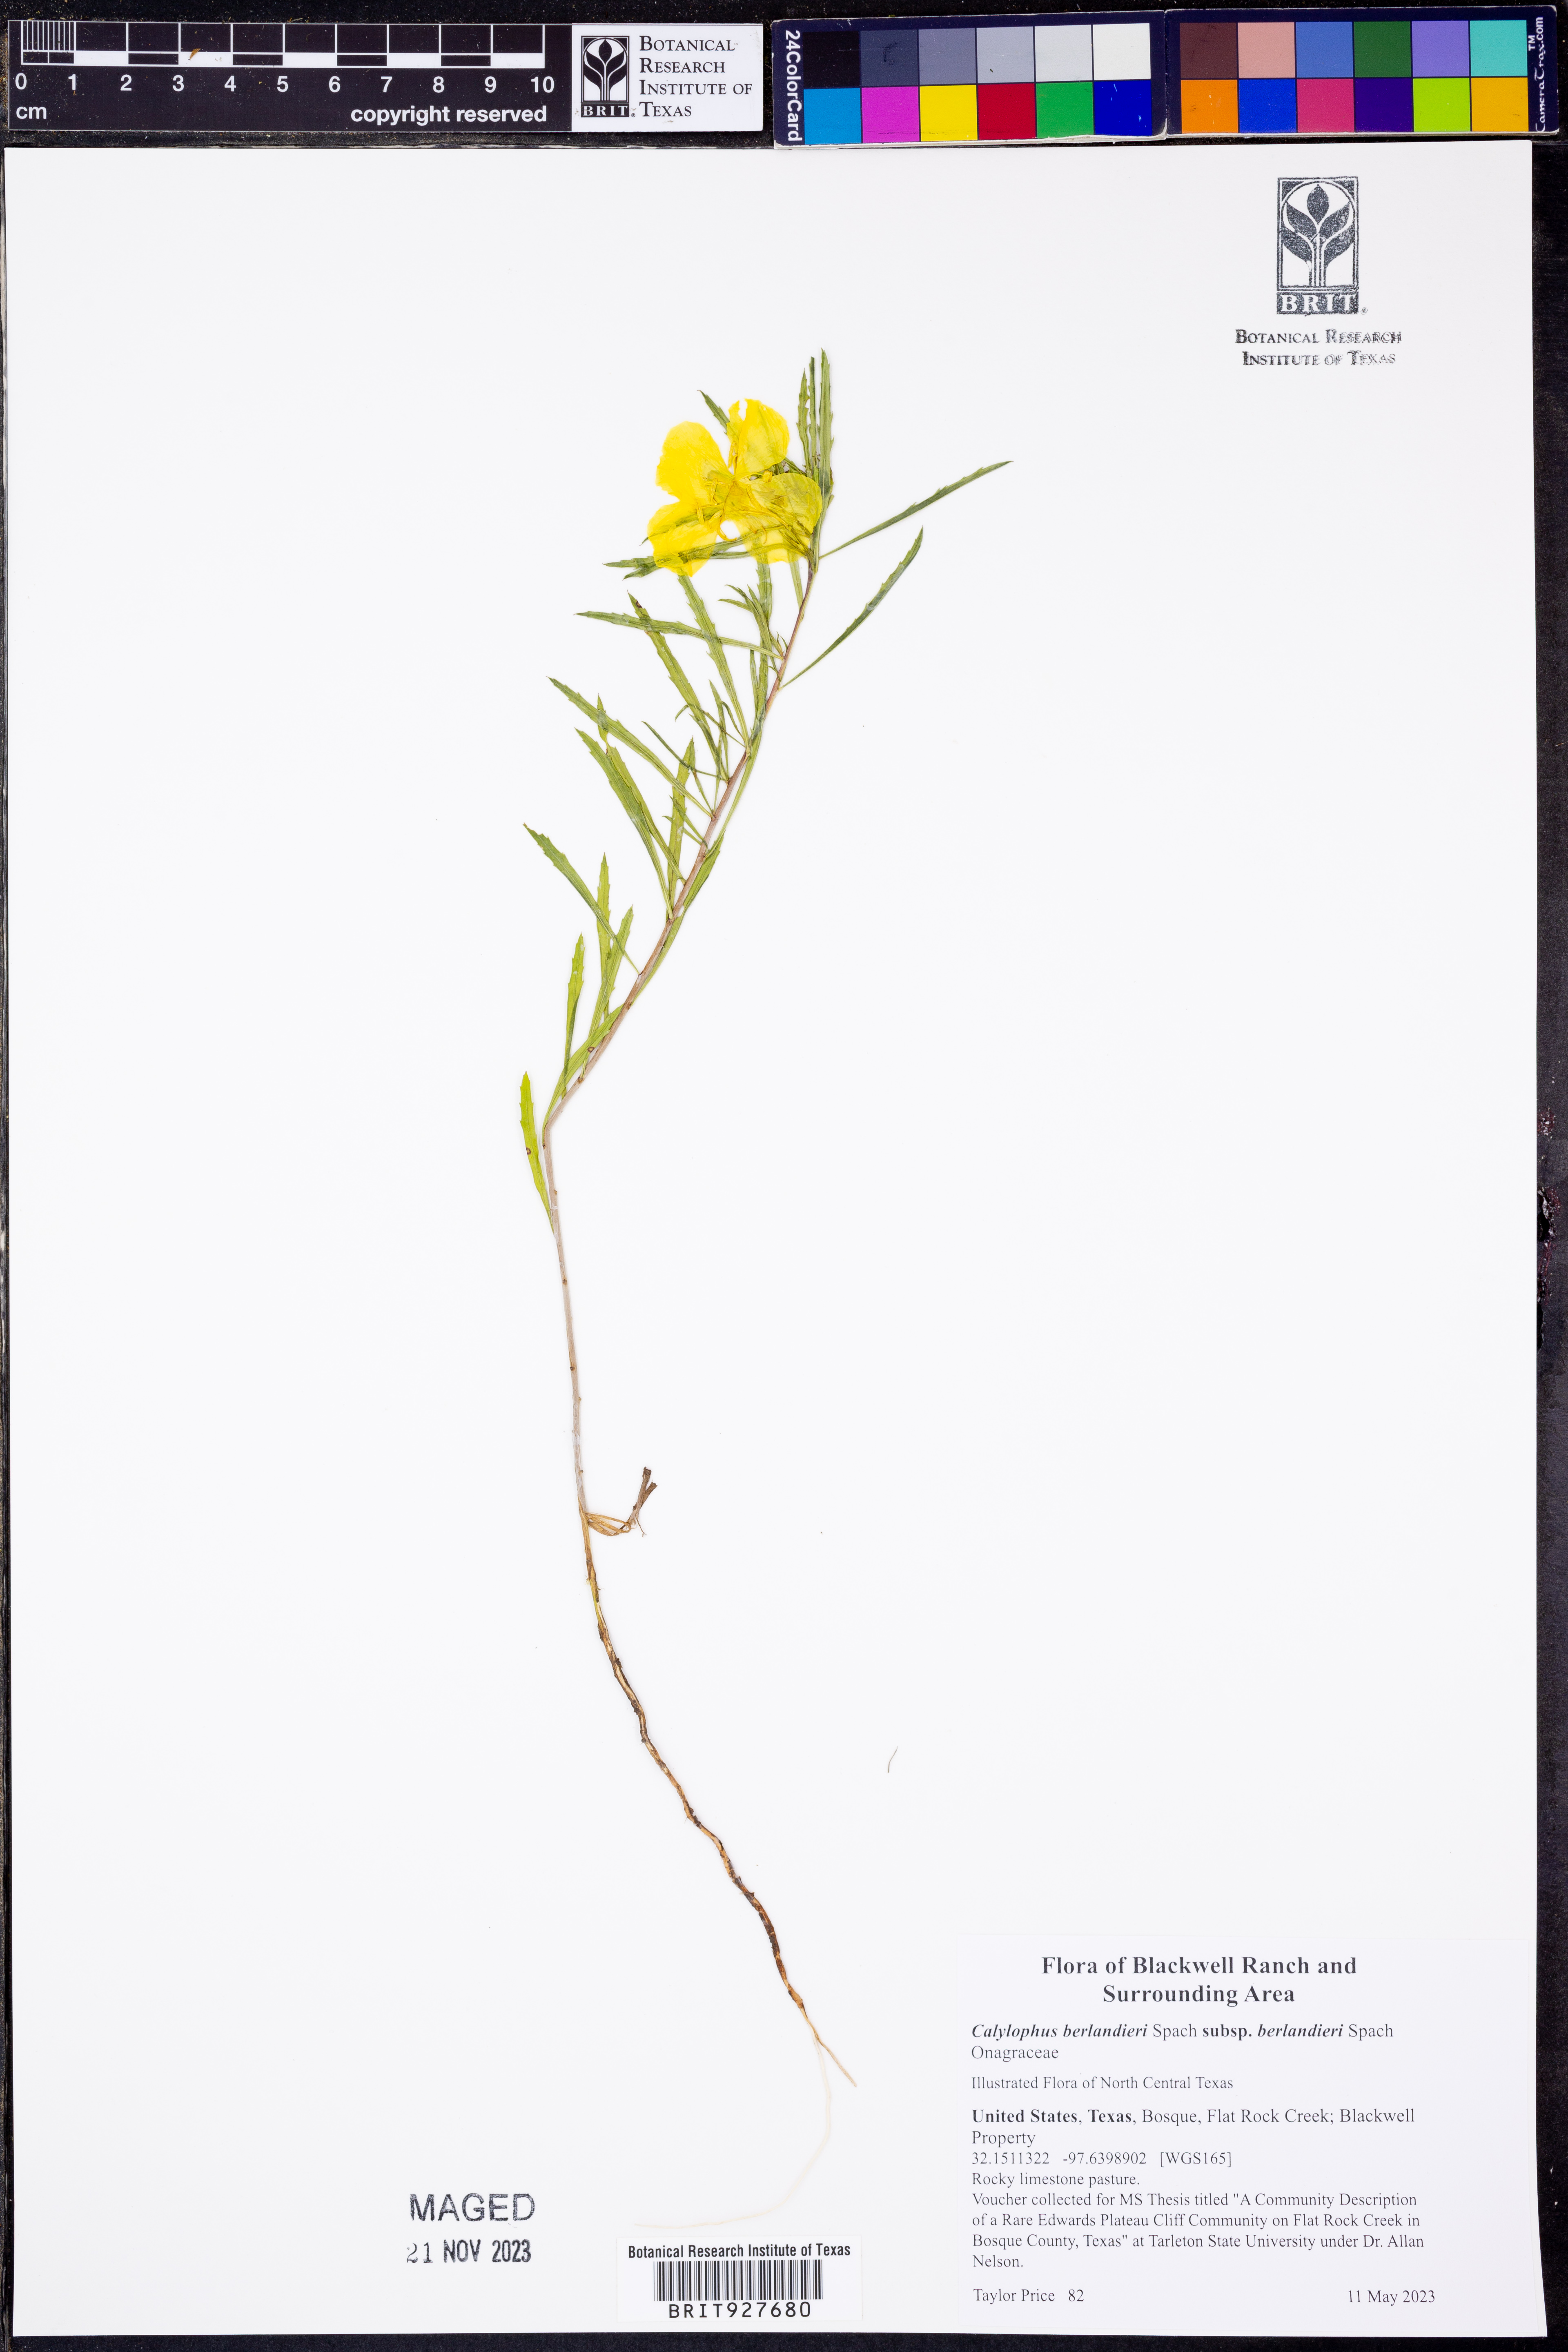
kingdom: Plantae
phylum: Tracheophyta
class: Magnoliopsida
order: Myrtales
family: Onagraceae
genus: Oenothera
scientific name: Oenothera capillifolia
